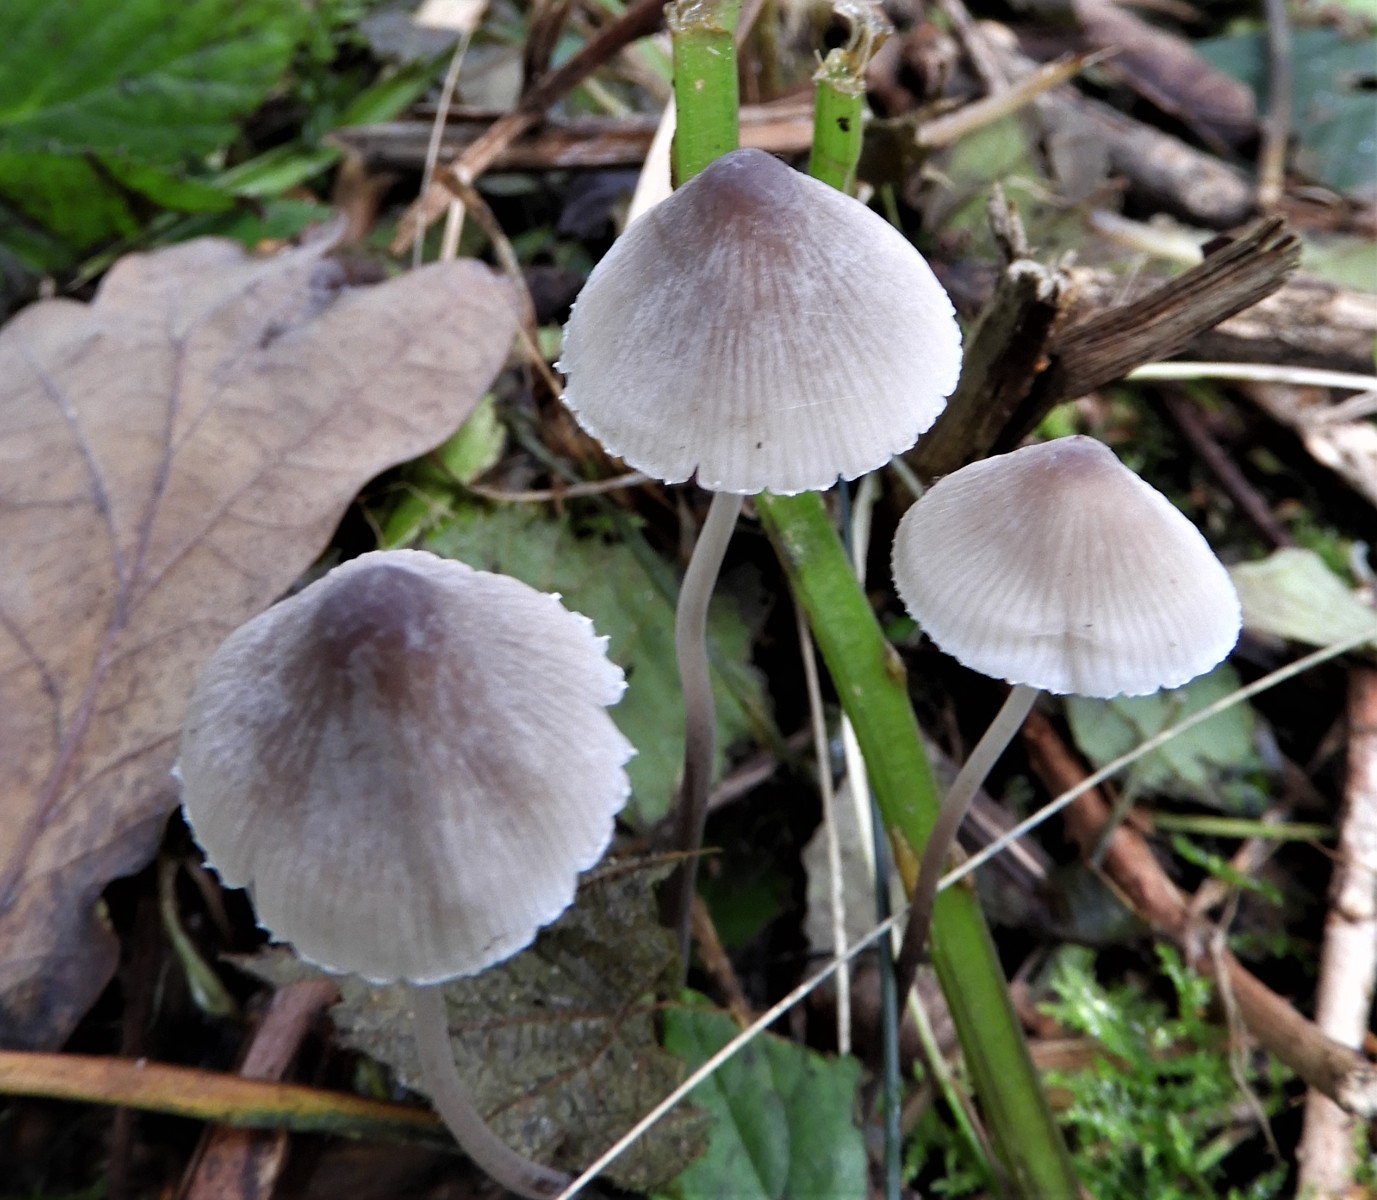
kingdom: Fungi
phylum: Basidiomycota
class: Agaricomycetes
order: Agaricales
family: Mycenaceae
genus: Mycena
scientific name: Mycena polygramma
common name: mangestribet huesvamp
